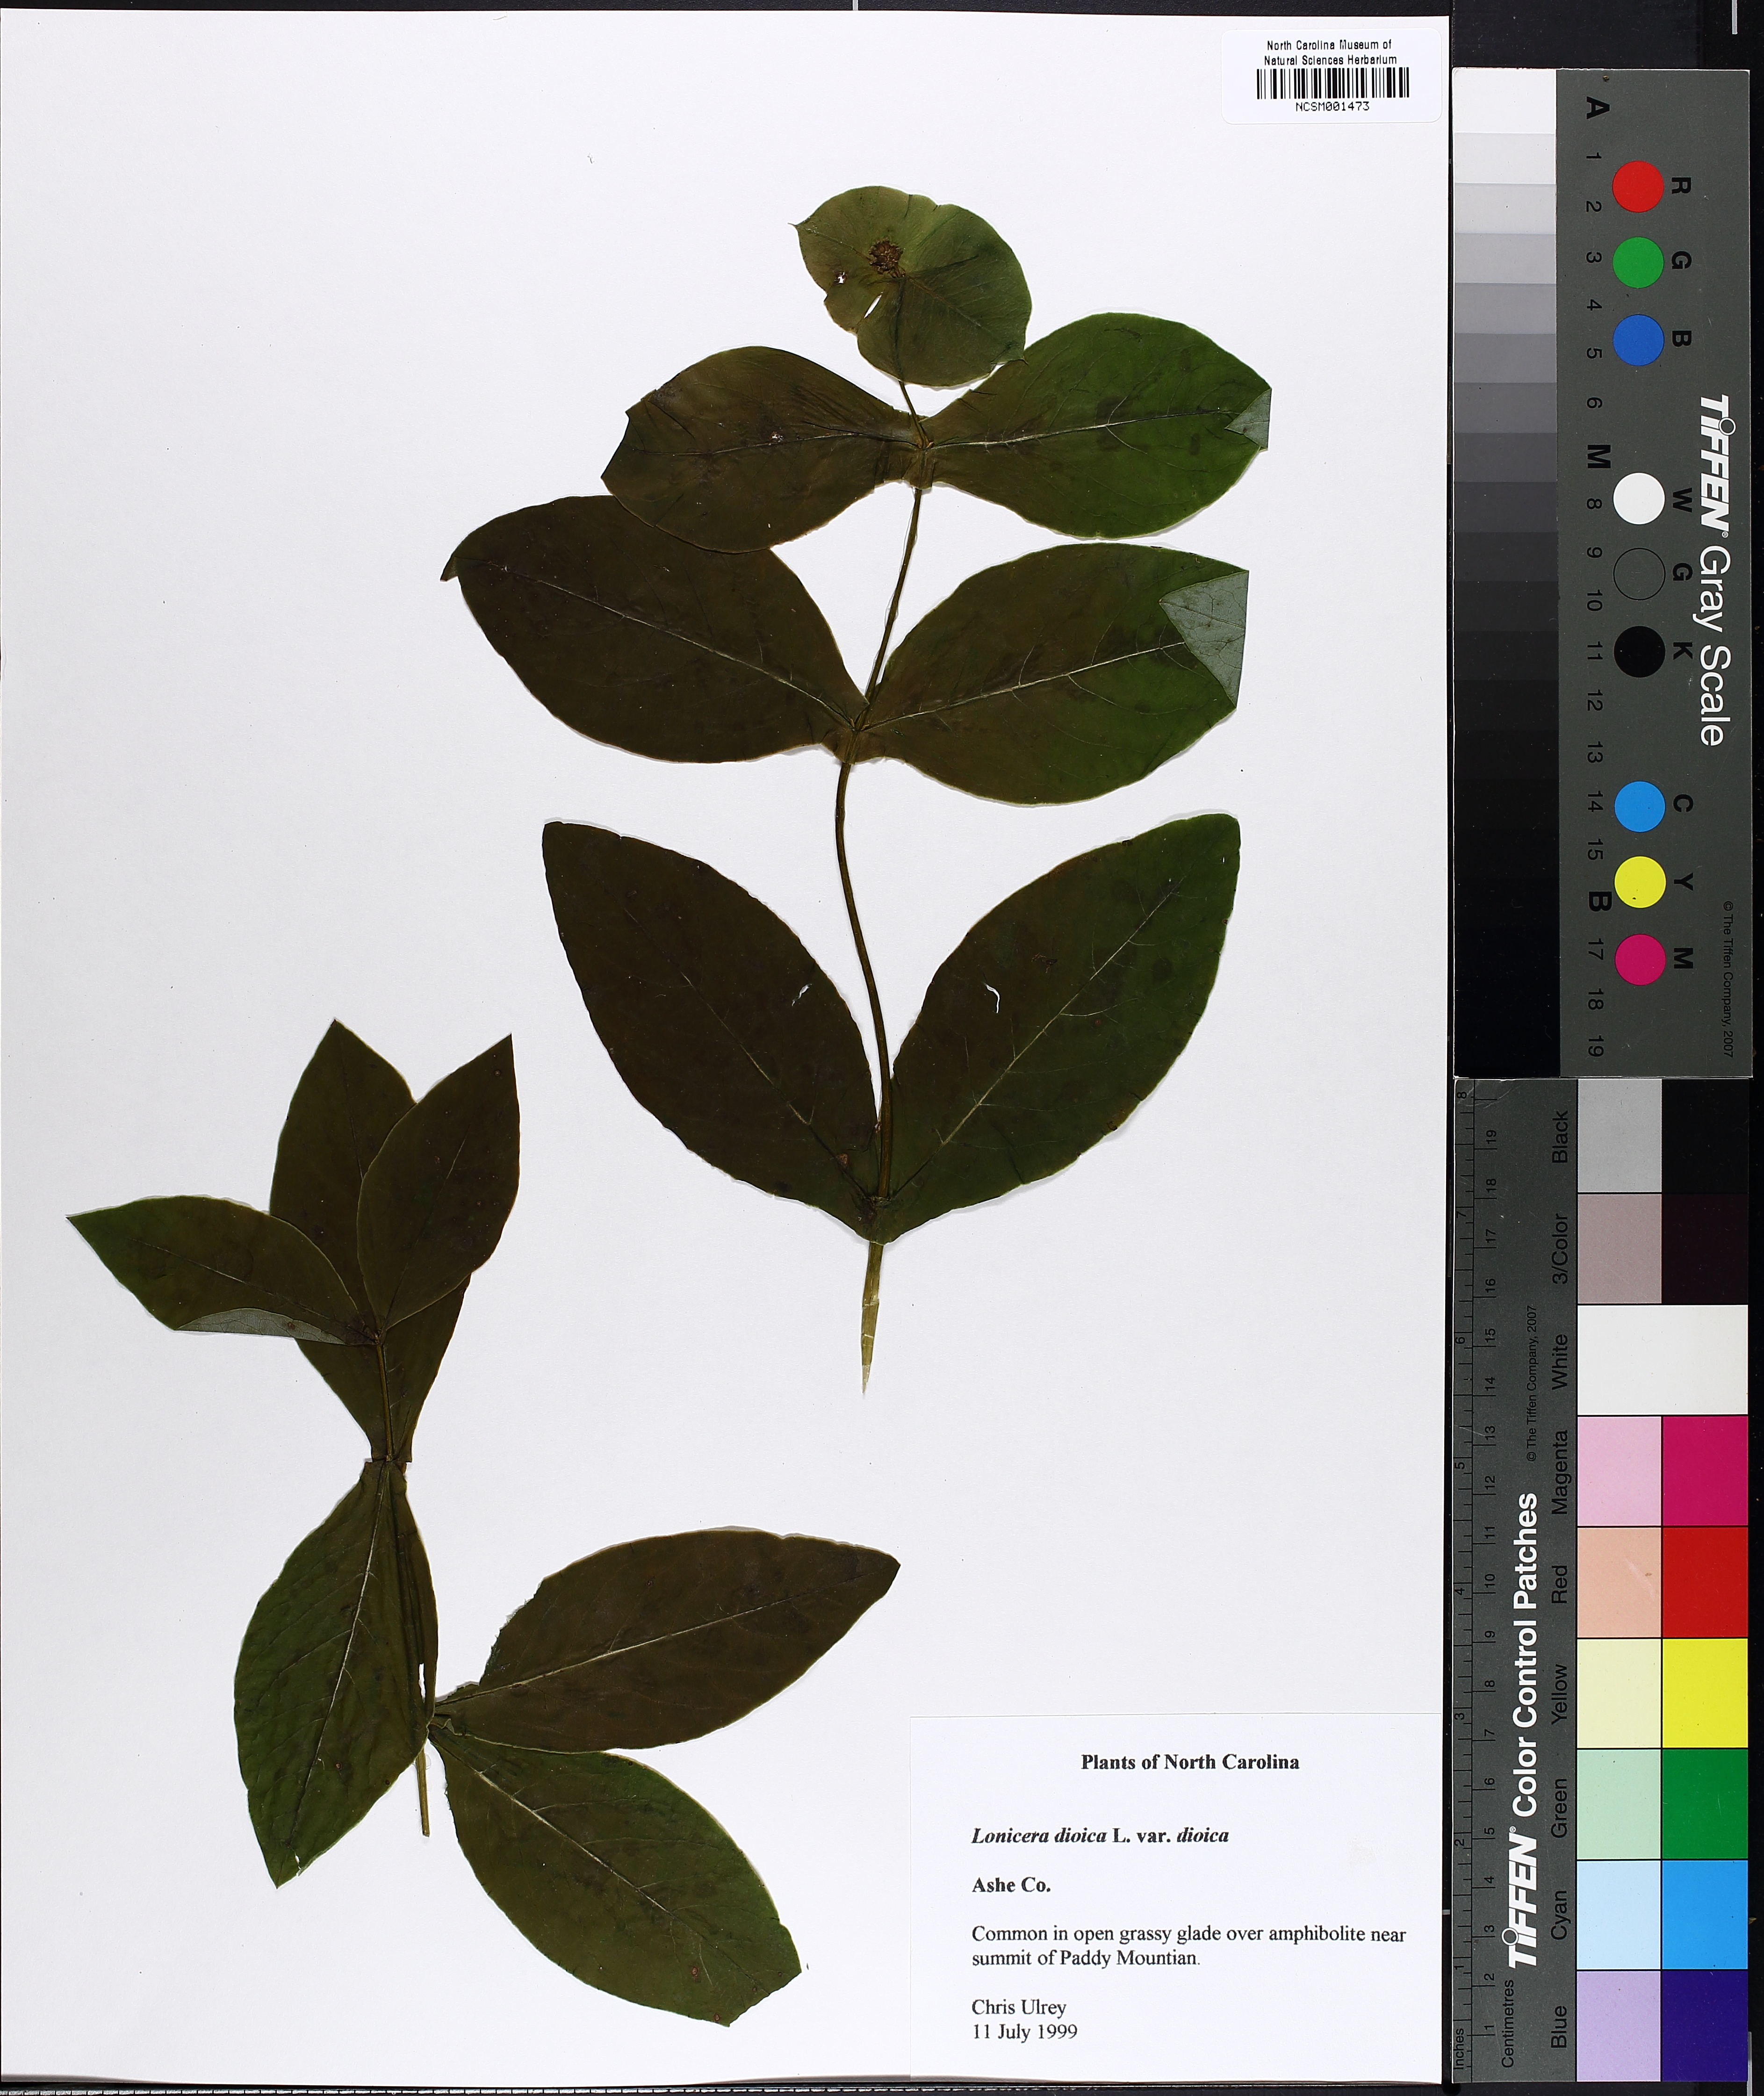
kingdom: Plantae
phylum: Tracheophyta
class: Magnoliopsida
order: Dipsacales
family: Caprifoliaceae
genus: Lonicera
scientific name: Lonicera dioica
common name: Limber honeysuckle
